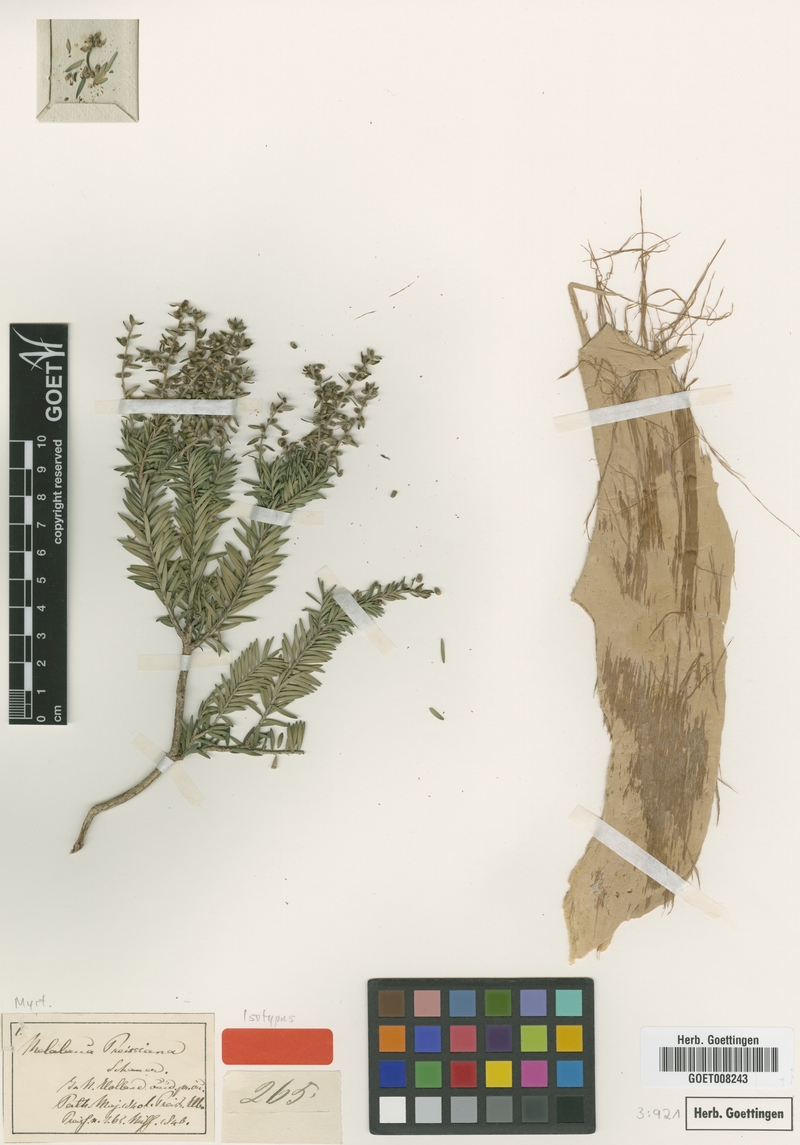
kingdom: Plantae
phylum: Tracheophyta
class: Magnoliopsida
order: Myrtales
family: Myrtaceae
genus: Melaleuca
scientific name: Melaleuca preissiana
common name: Preiss's paperbark
